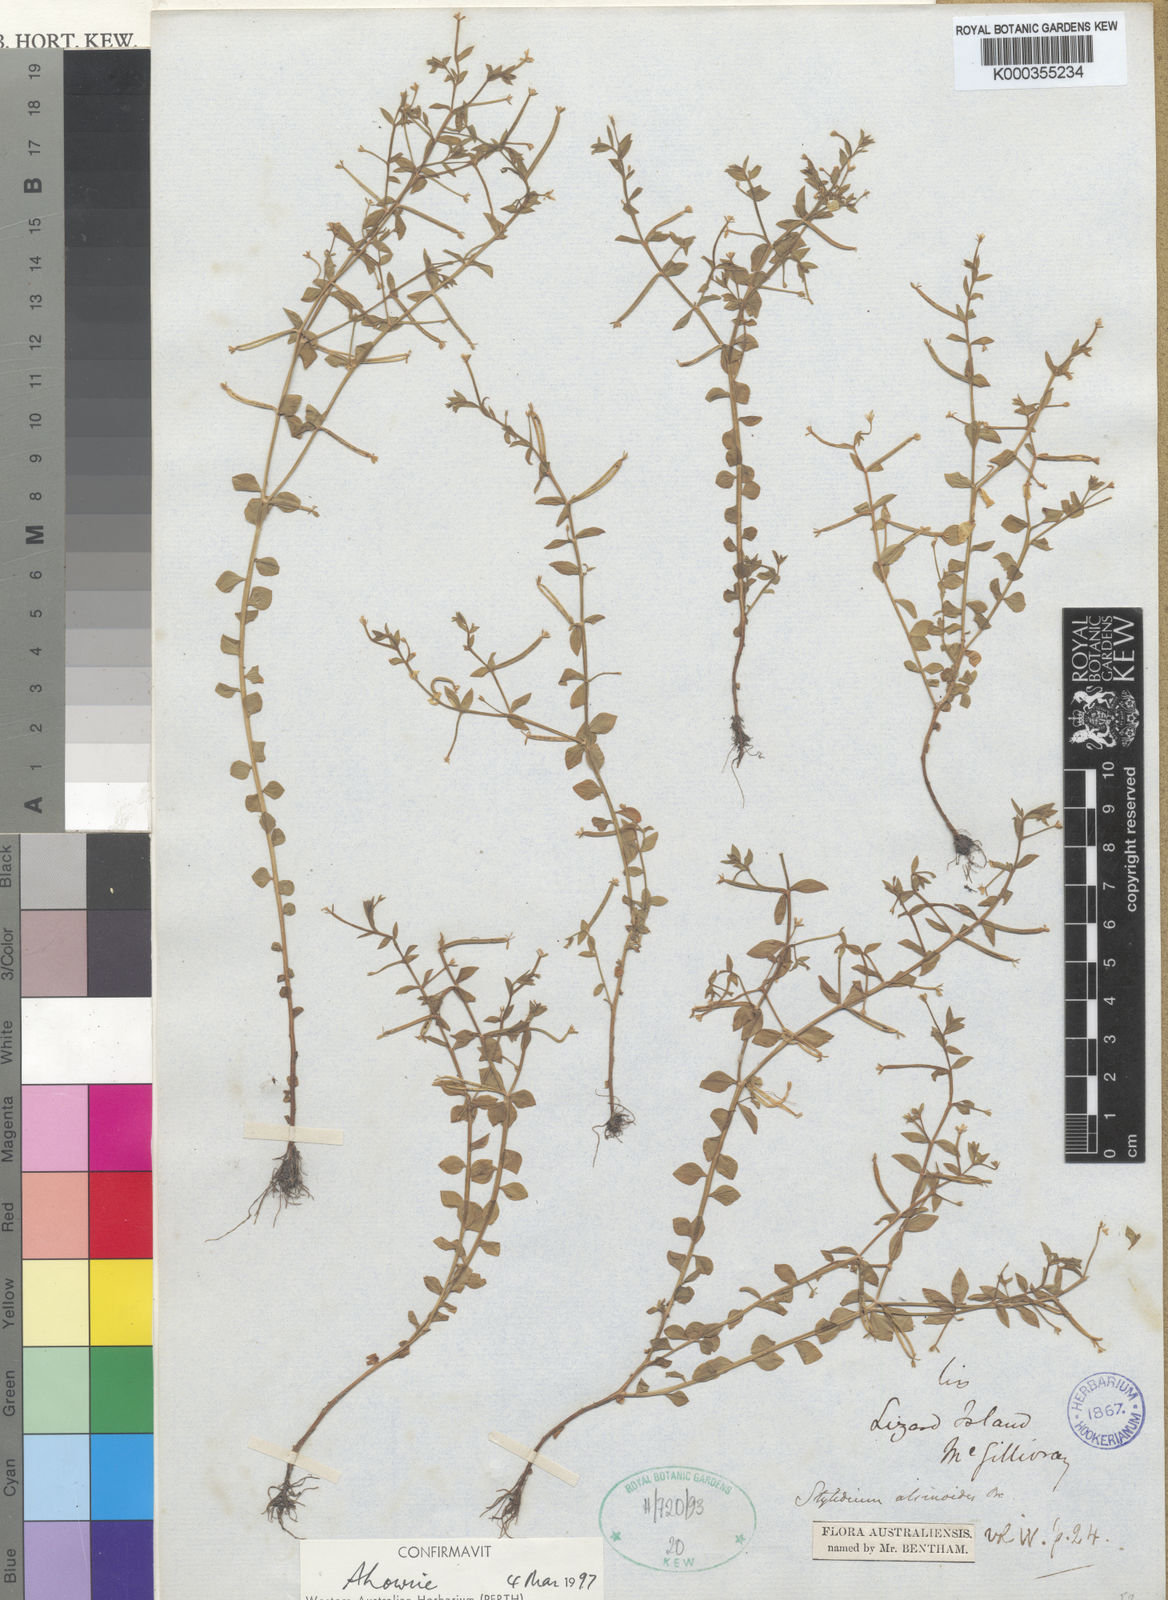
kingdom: Plantae
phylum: Tracheophyta
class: Magnoliopsida
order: Asterales
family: Stylidiaceae
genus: Stylidium
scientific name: Stylidium alsinoides
